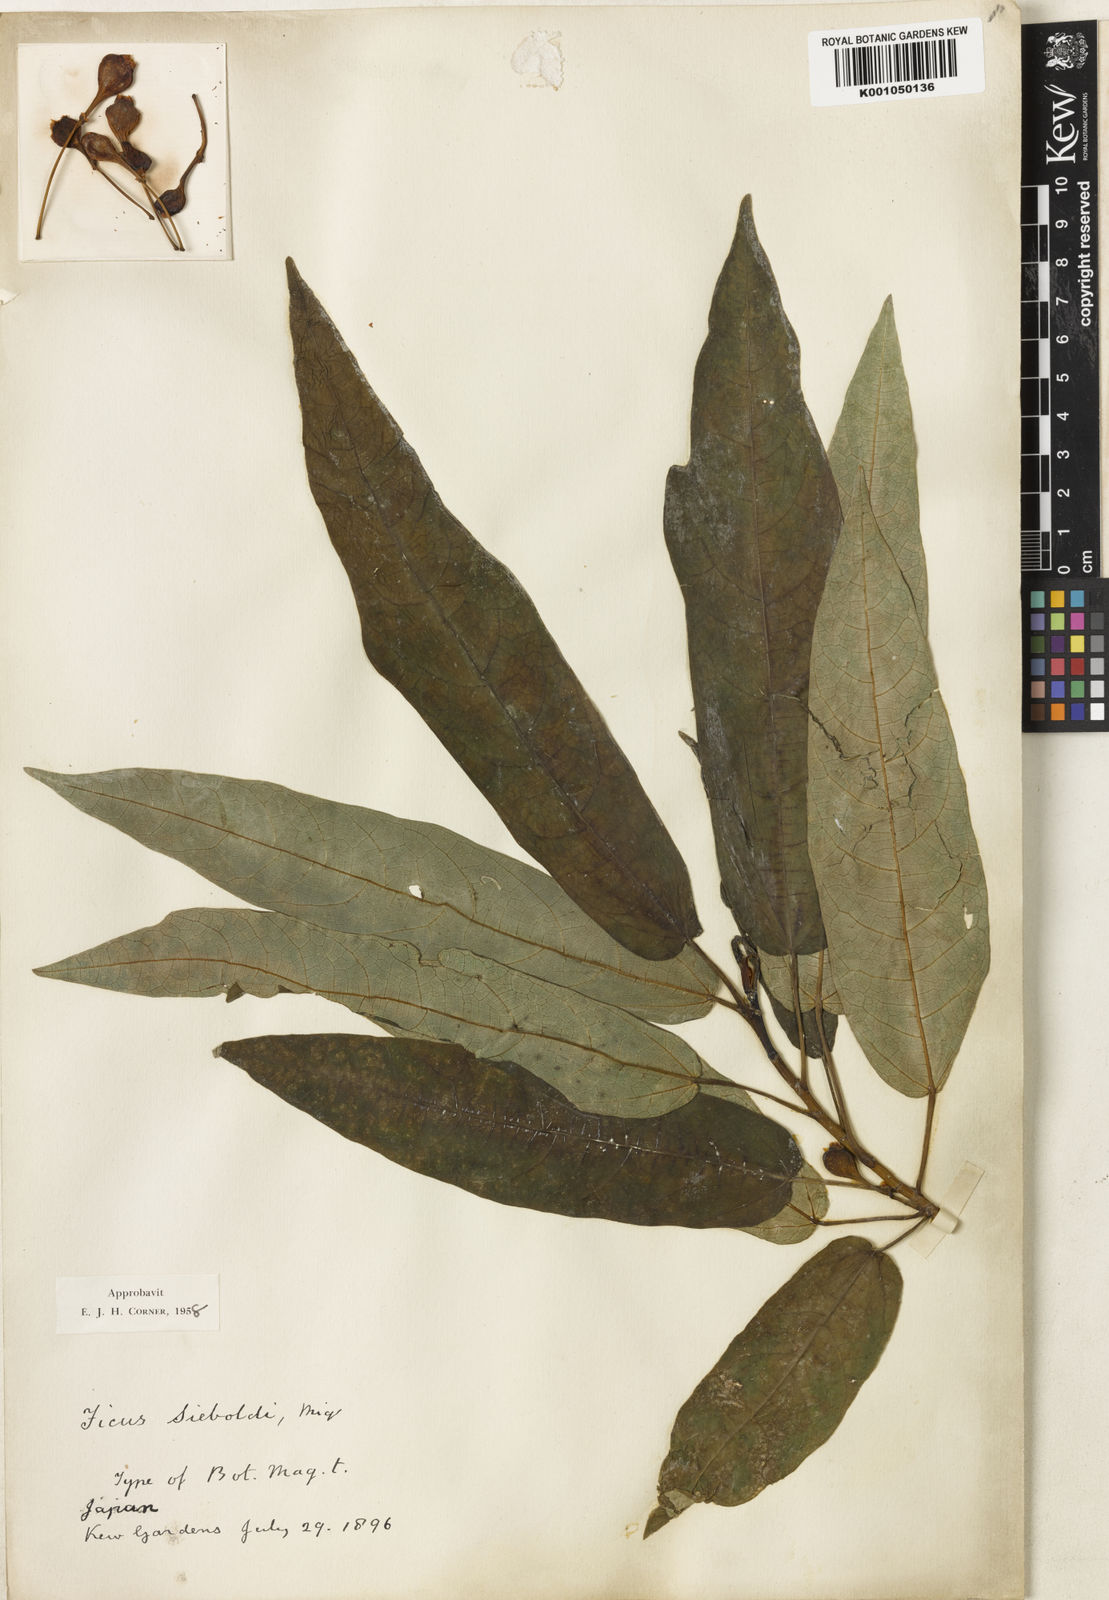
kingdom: Plantae
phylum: Tracheophyta
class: Magnoliopsida
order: Rosales
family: Moraceae
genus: Ficus
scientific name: Ficus erecta
